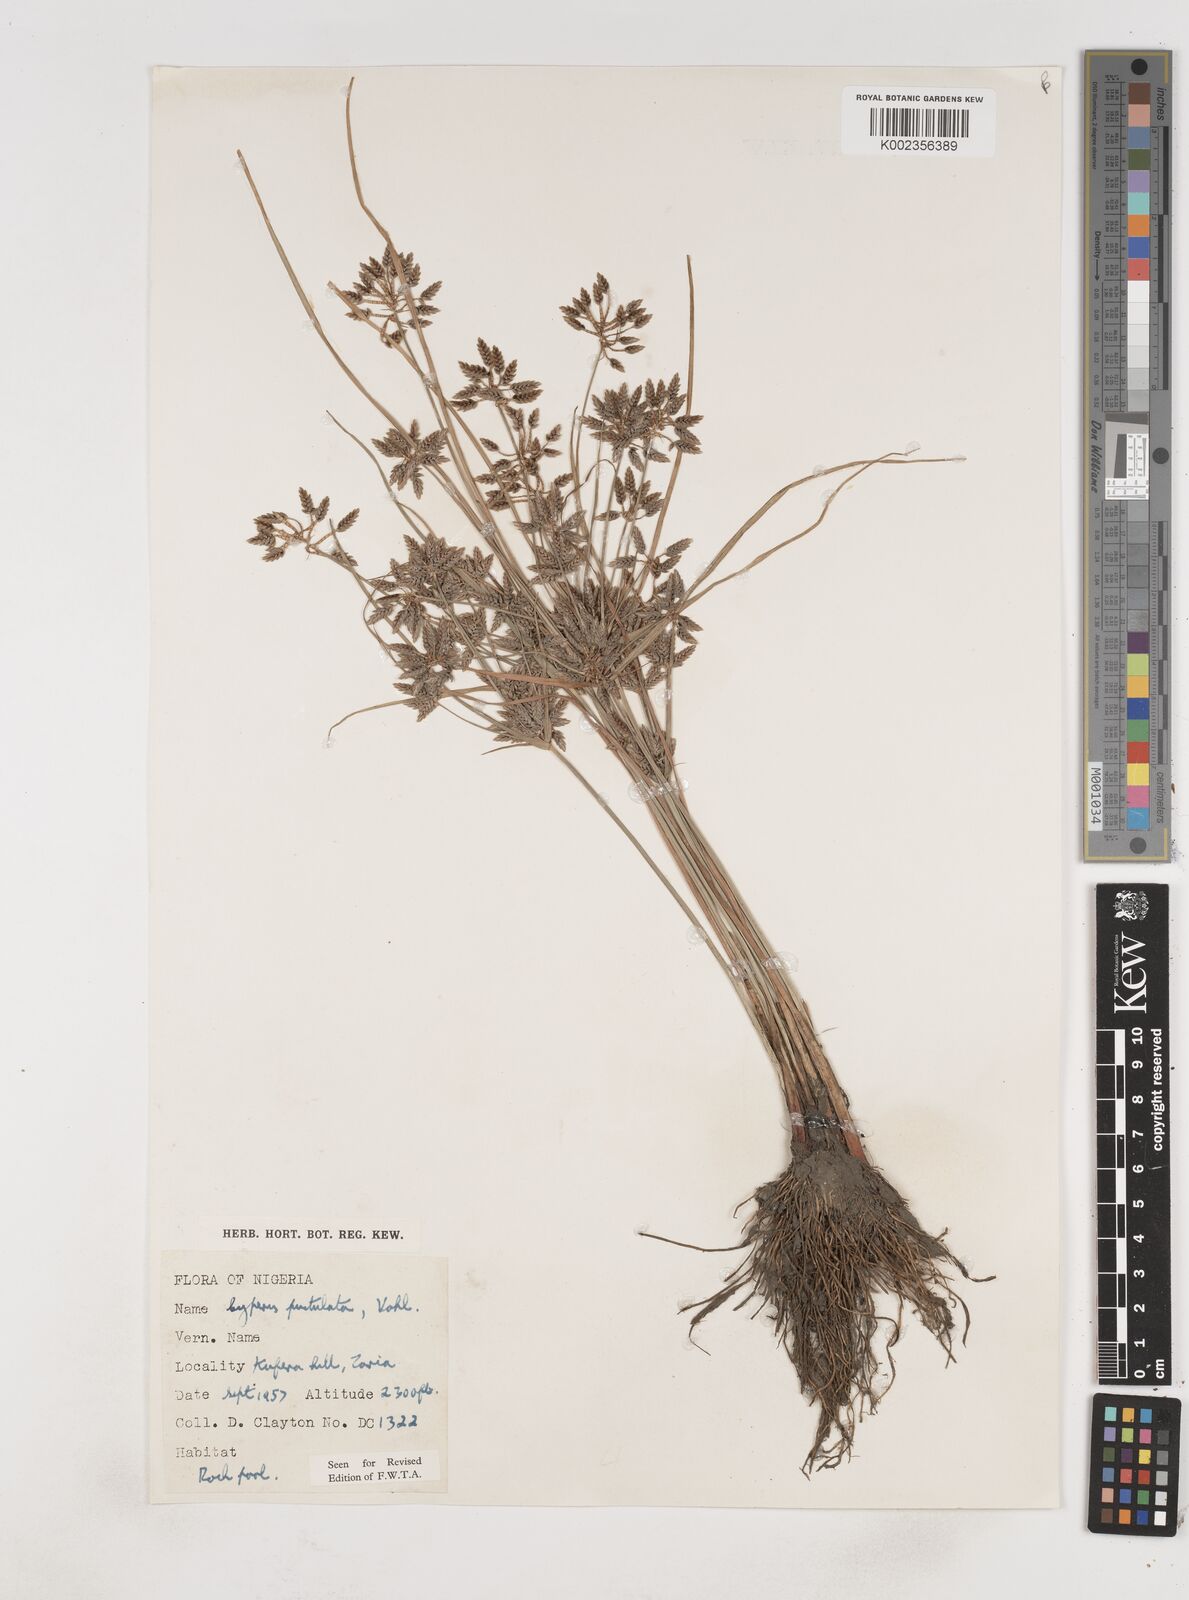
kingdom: Plantae
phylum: Tracheophyta
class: Liliopsida
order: Poales
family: Cyperaceae
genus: Cyperus
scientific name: Cyperus pustulatus
